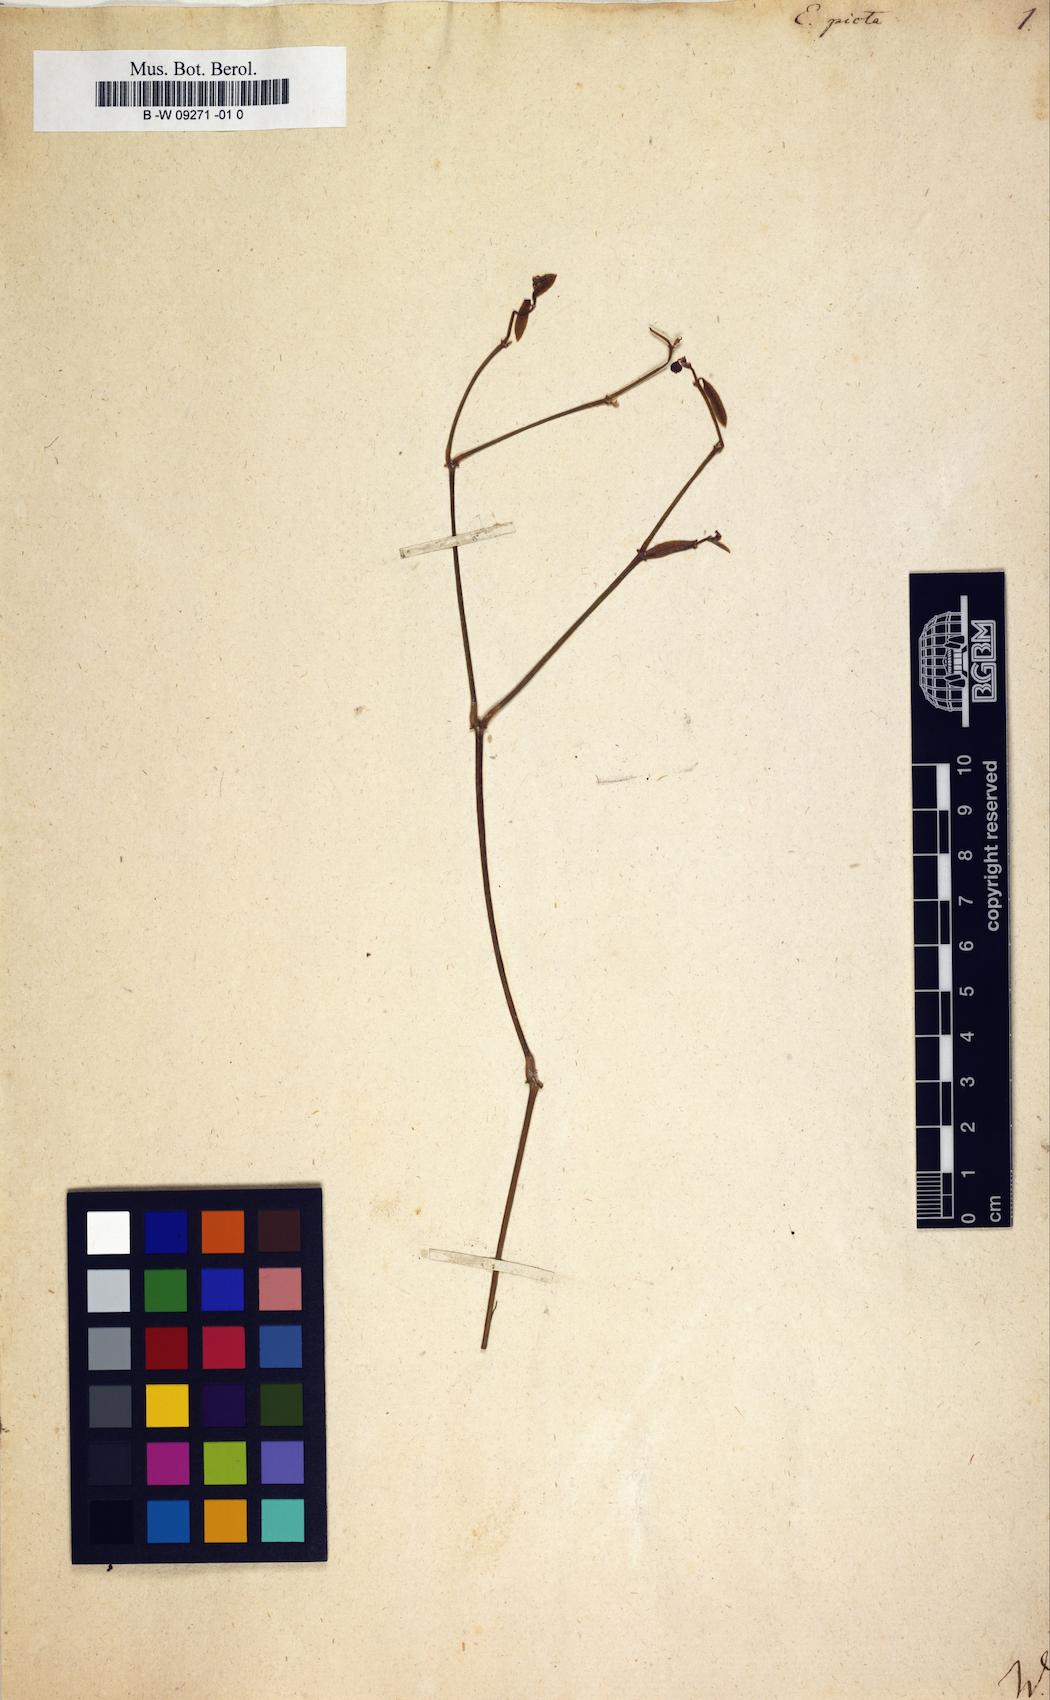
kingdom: Plantae
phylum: Tracheophyta
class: Magnoliopsida
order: Malpighiales
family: Euphorbiaceae
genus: Euphorbia
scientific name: Euphorbia graminea
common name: Grassleaf spurge
